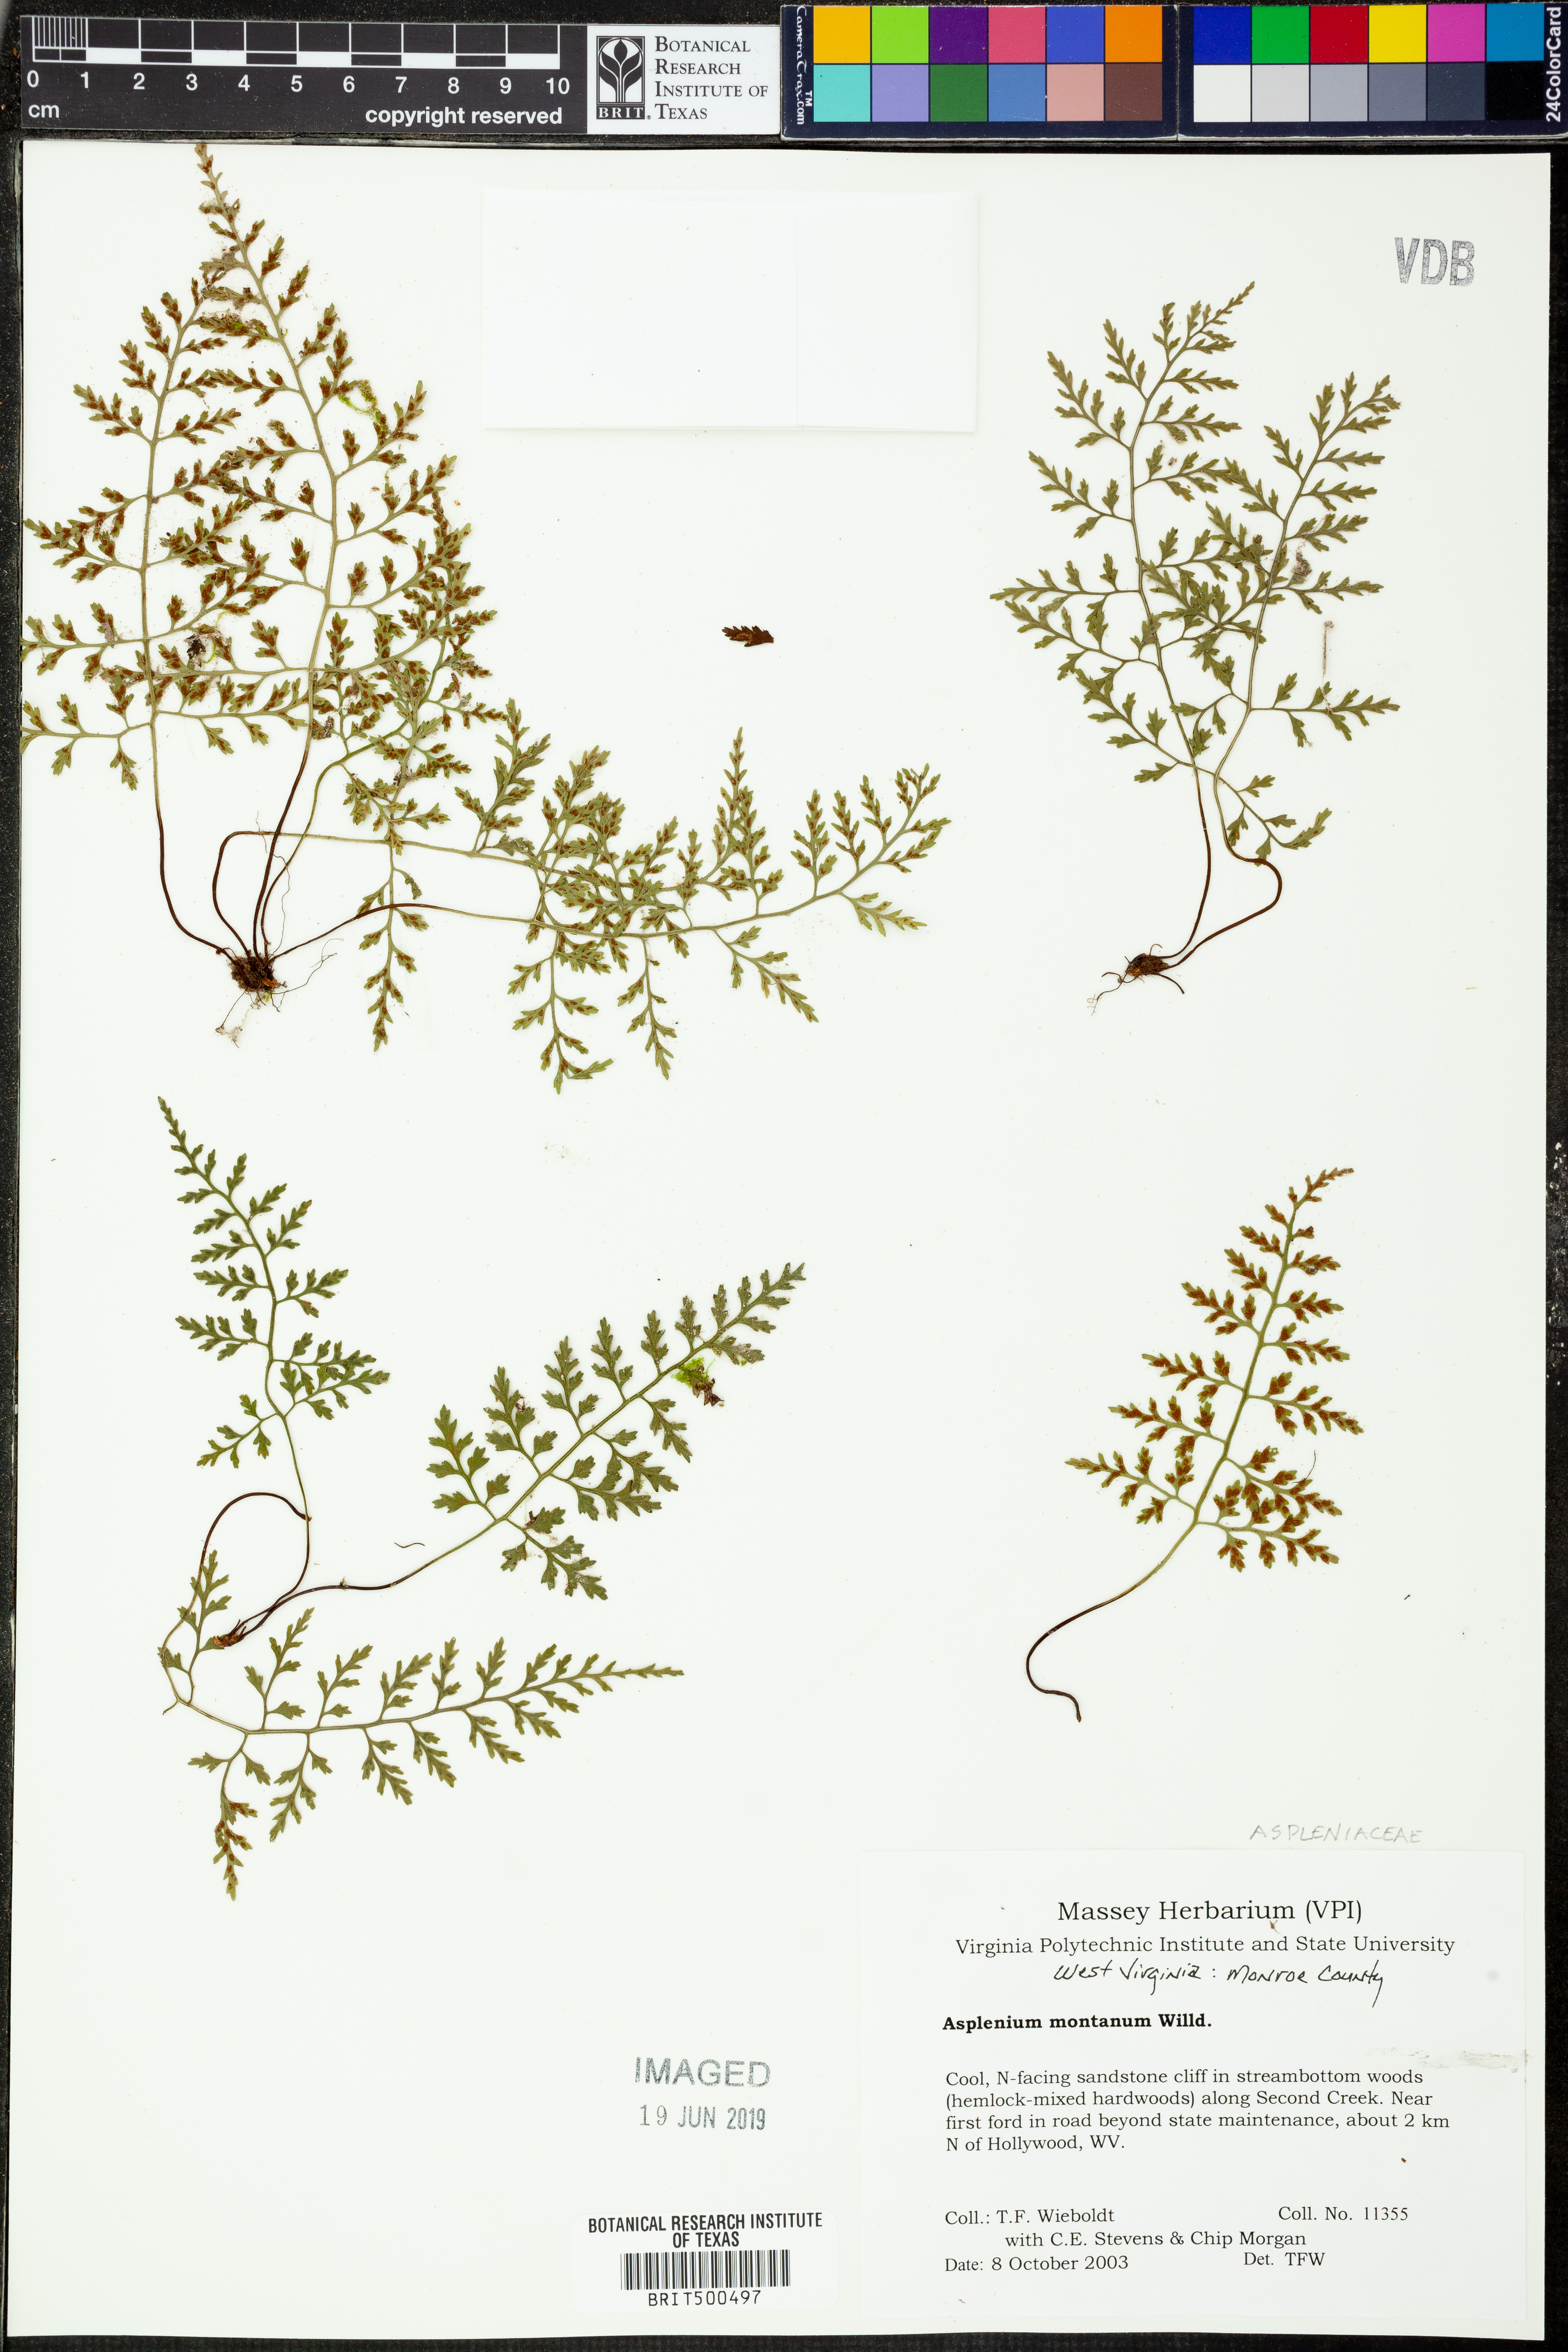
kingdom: Plantae
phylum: Tracheophyta
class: Polypodiopsida
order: Polypodiales
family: Aspleniaceae
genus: Asplenium
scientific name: Asplenium montanum
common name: Mountain spleenwort
